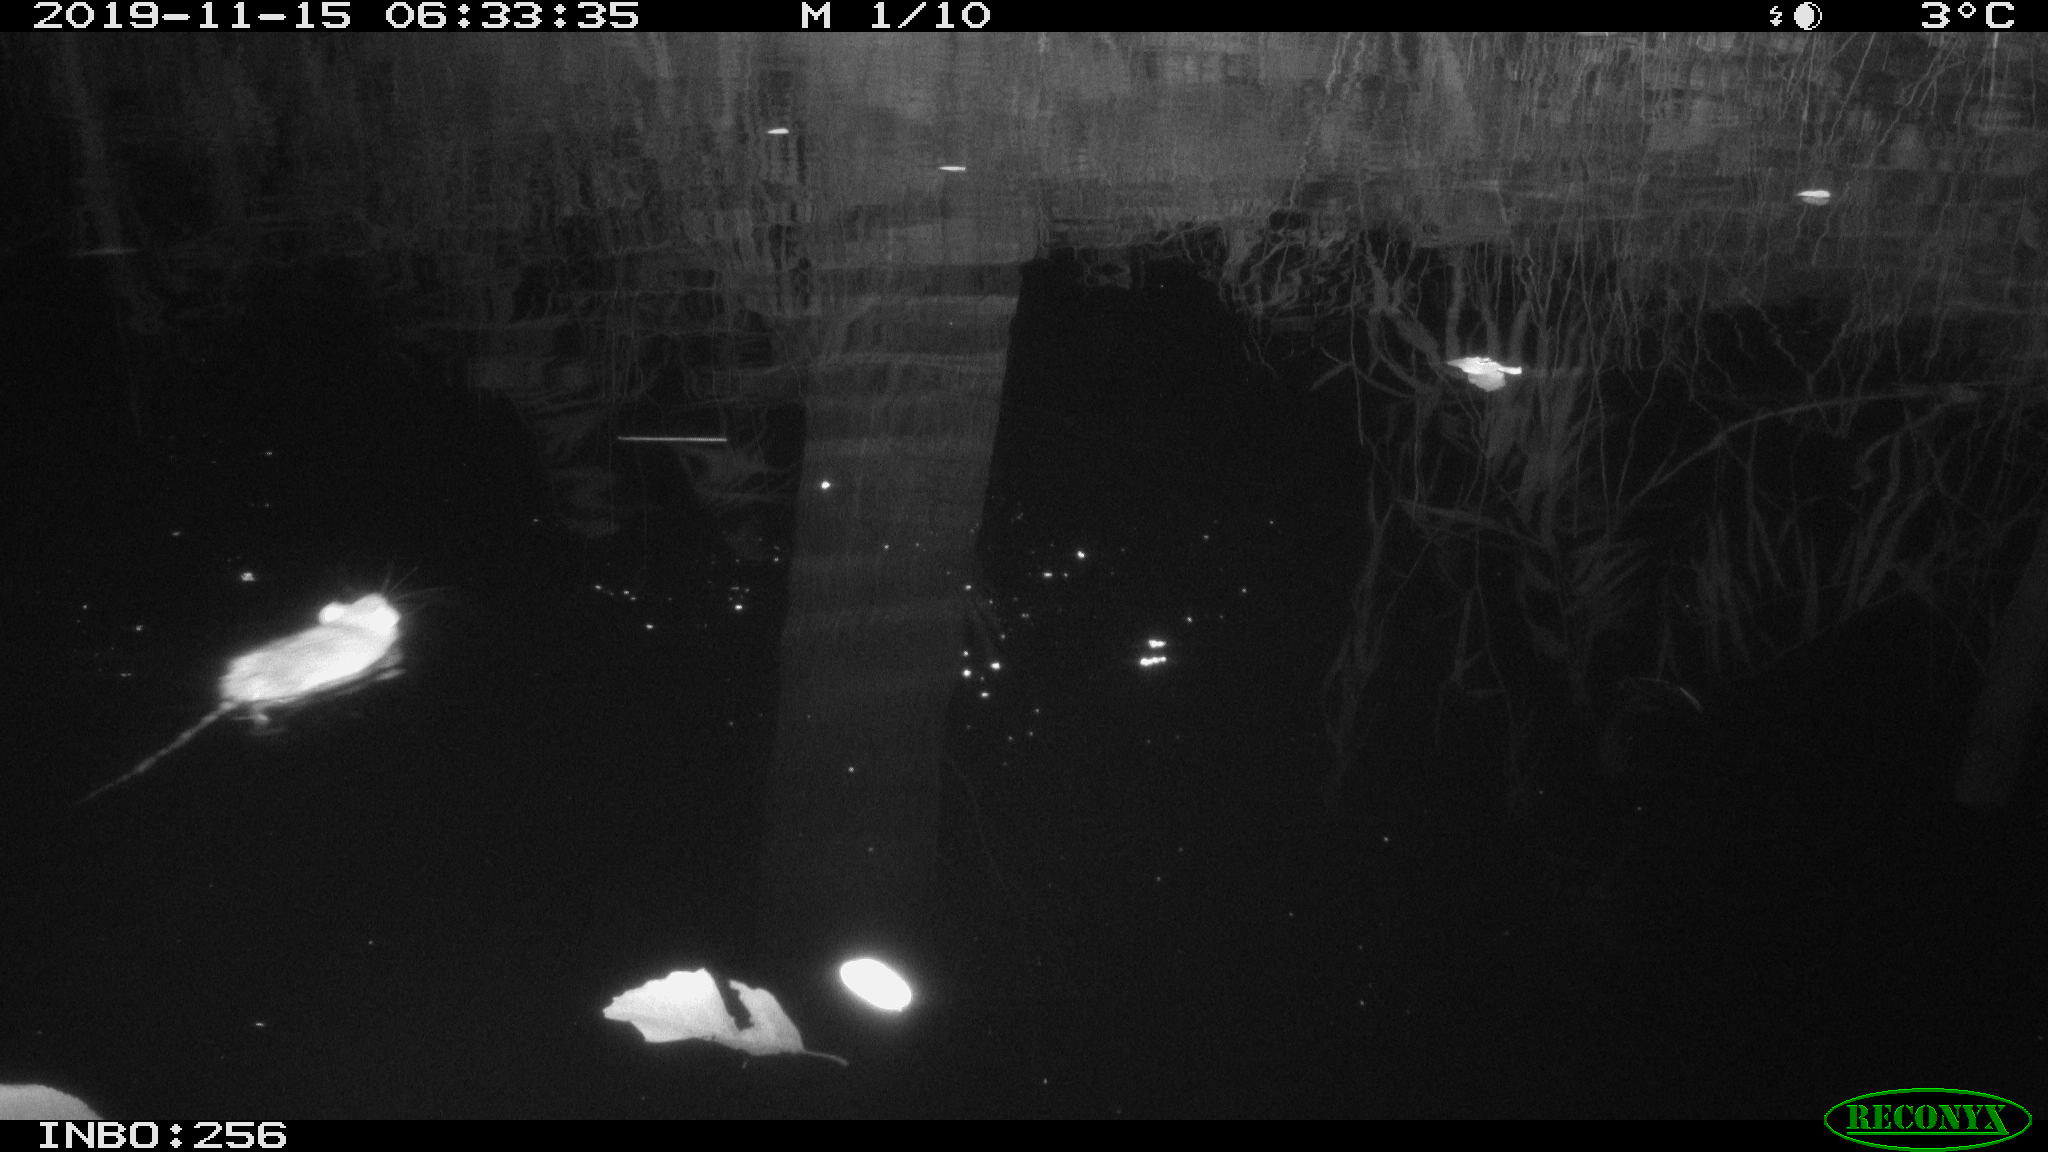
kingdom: Animalia
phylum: Chordata
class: Mammalia
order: Rodentia
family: Muridae
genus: Rattus
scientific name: Rattus norvegicus
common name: Brown rat
